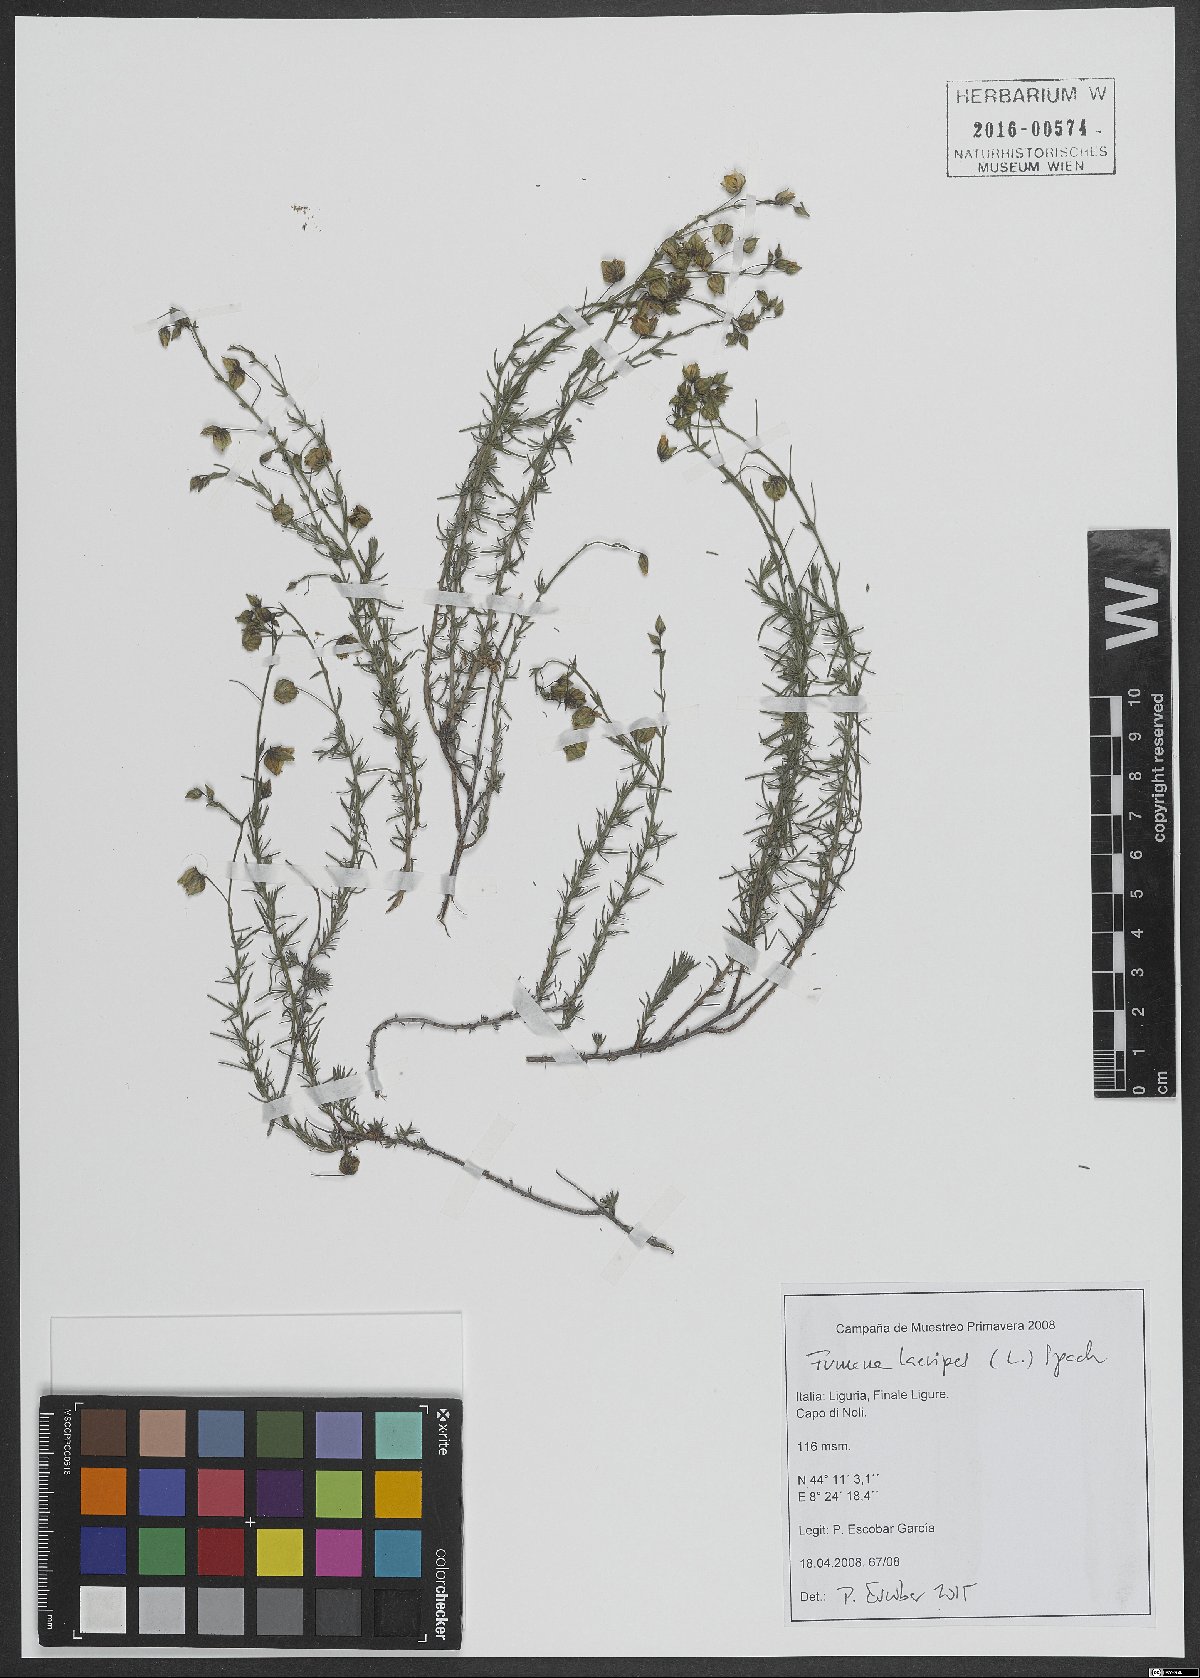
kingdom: Plantae
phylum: Tracheophyta
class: Magnoliopsida
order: Malvales
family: Cistaceae
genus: Fumana
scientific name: Fumana laevipes
